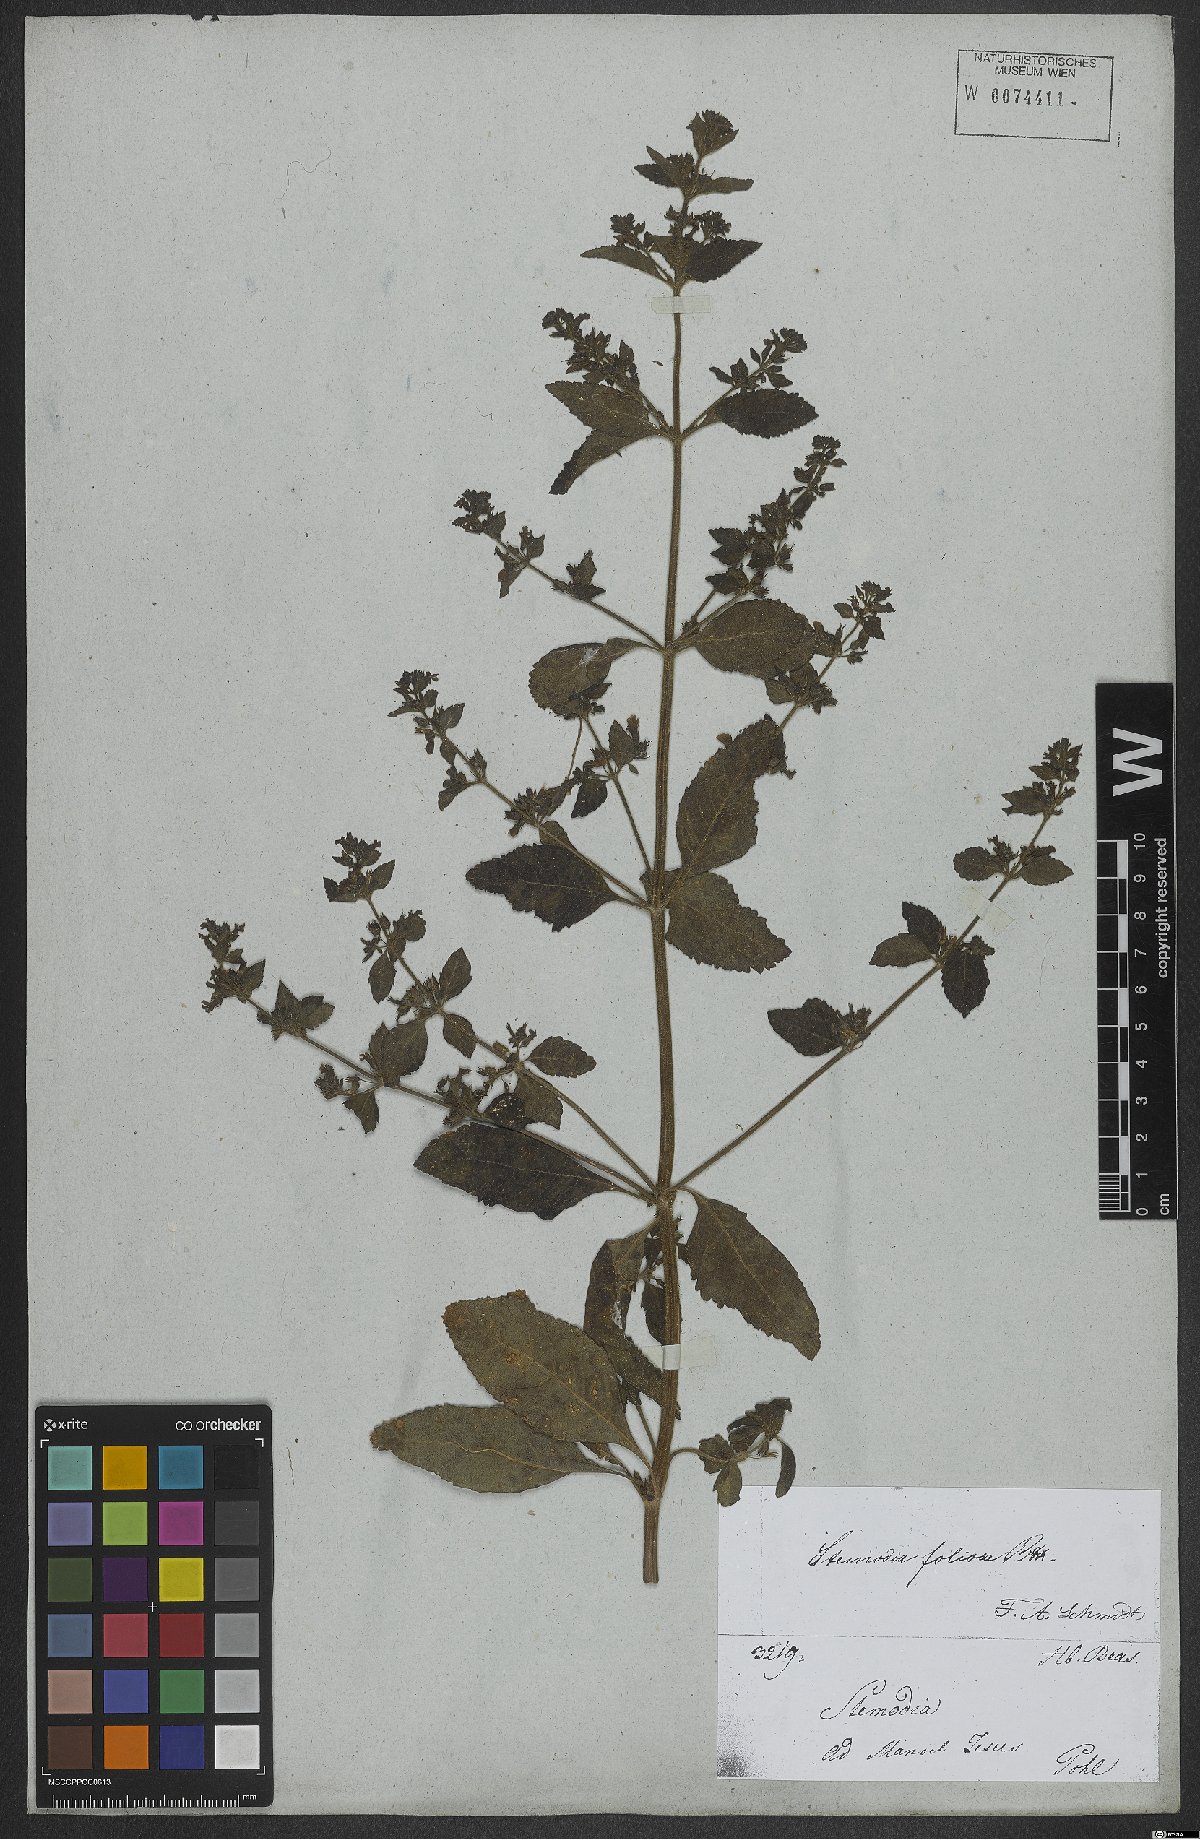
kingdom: Plantae
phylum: Tracheophyta
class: Magnoliopsida
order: Lamiales
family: Plantaginaceae
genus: Stemodia
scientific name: Stemodia foliosa
